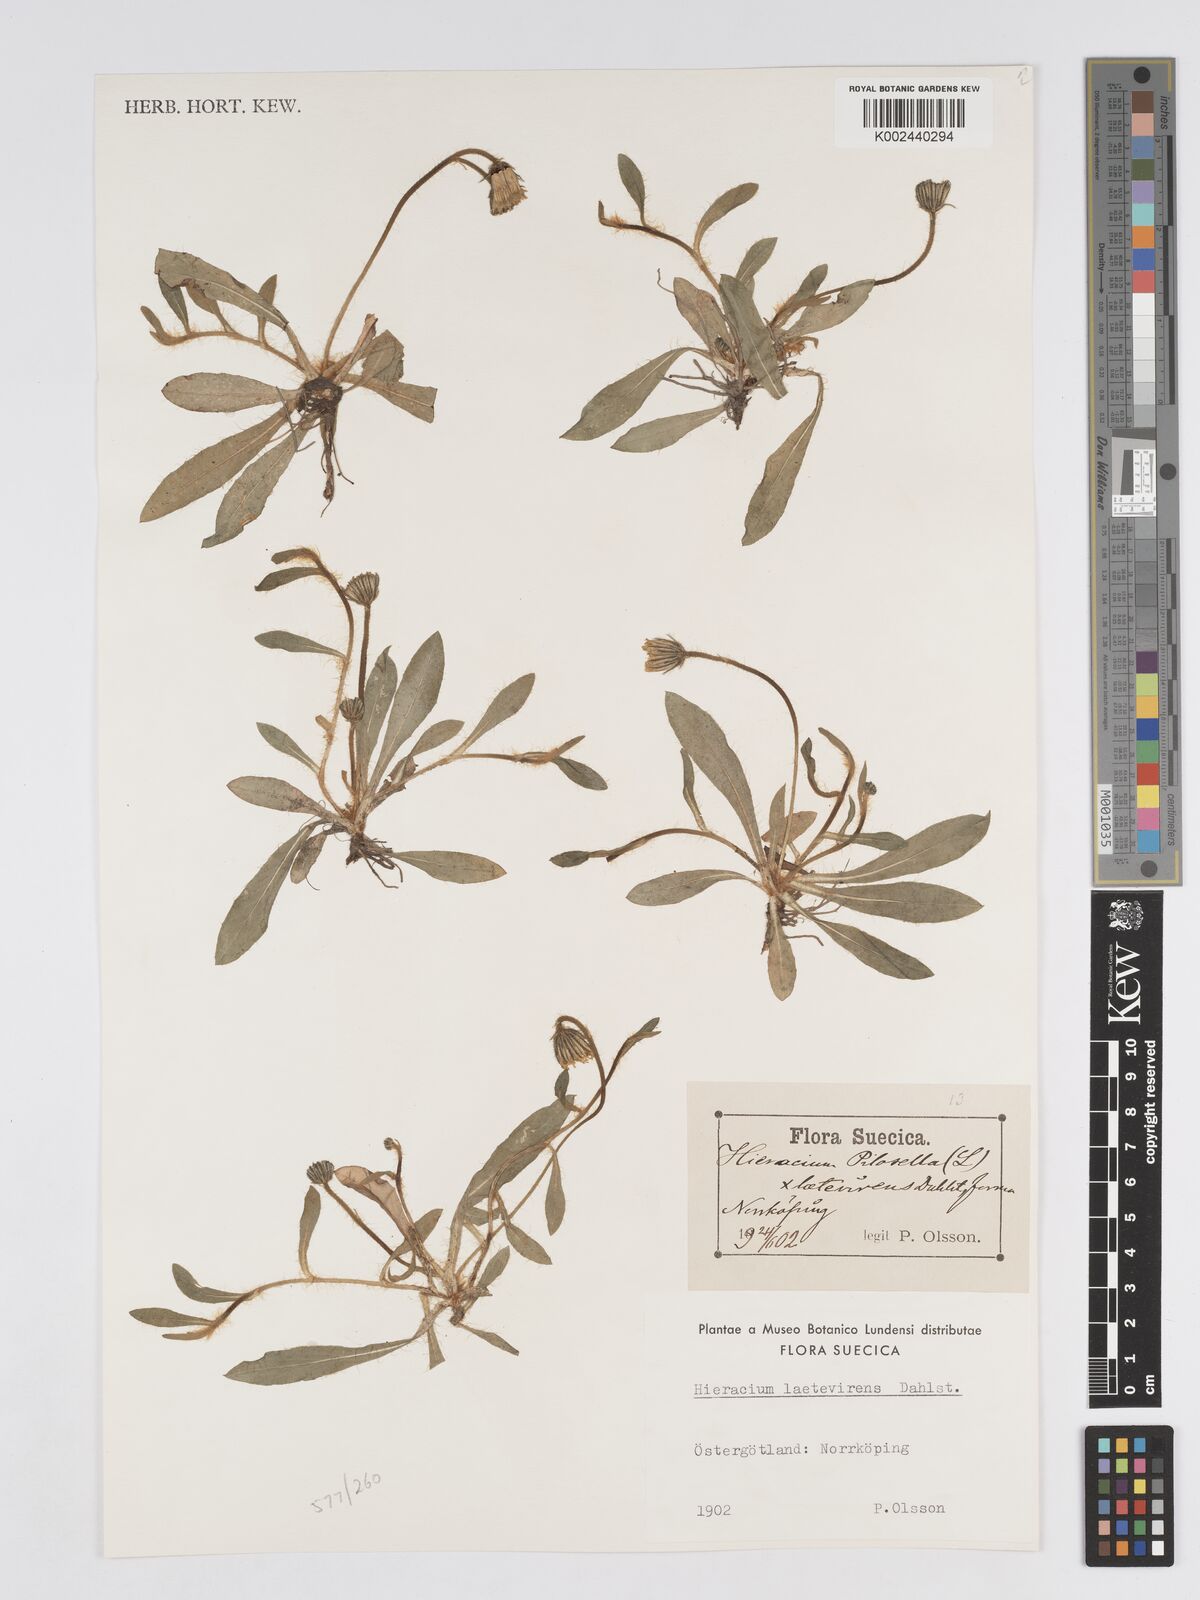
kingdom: Plantae
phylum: Tracheophyta
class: Magnoliopsida
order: Asterales
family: Asteraceae
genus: Pilosella
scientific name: Pilosella officinarum
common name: Mouse-ear hawkweed
